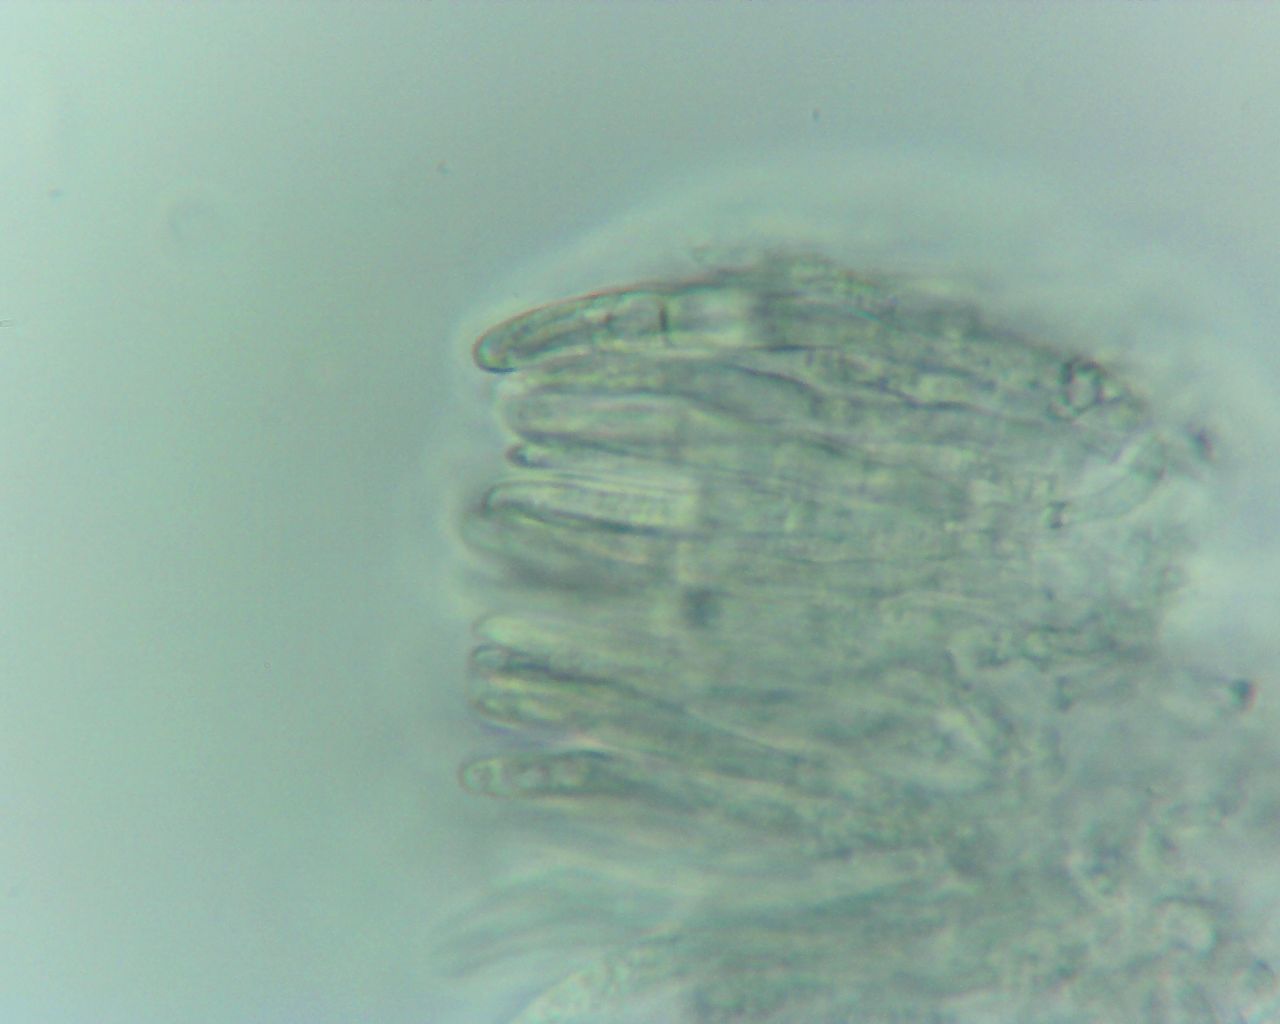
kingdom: Fungi
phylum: Ascomycota
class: Leotiomycetes
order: Helotiales
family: Solenopeziaceae
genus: Lasiobelonium
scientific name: Lasiobelonium nidulus
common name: rede-frynseskive
